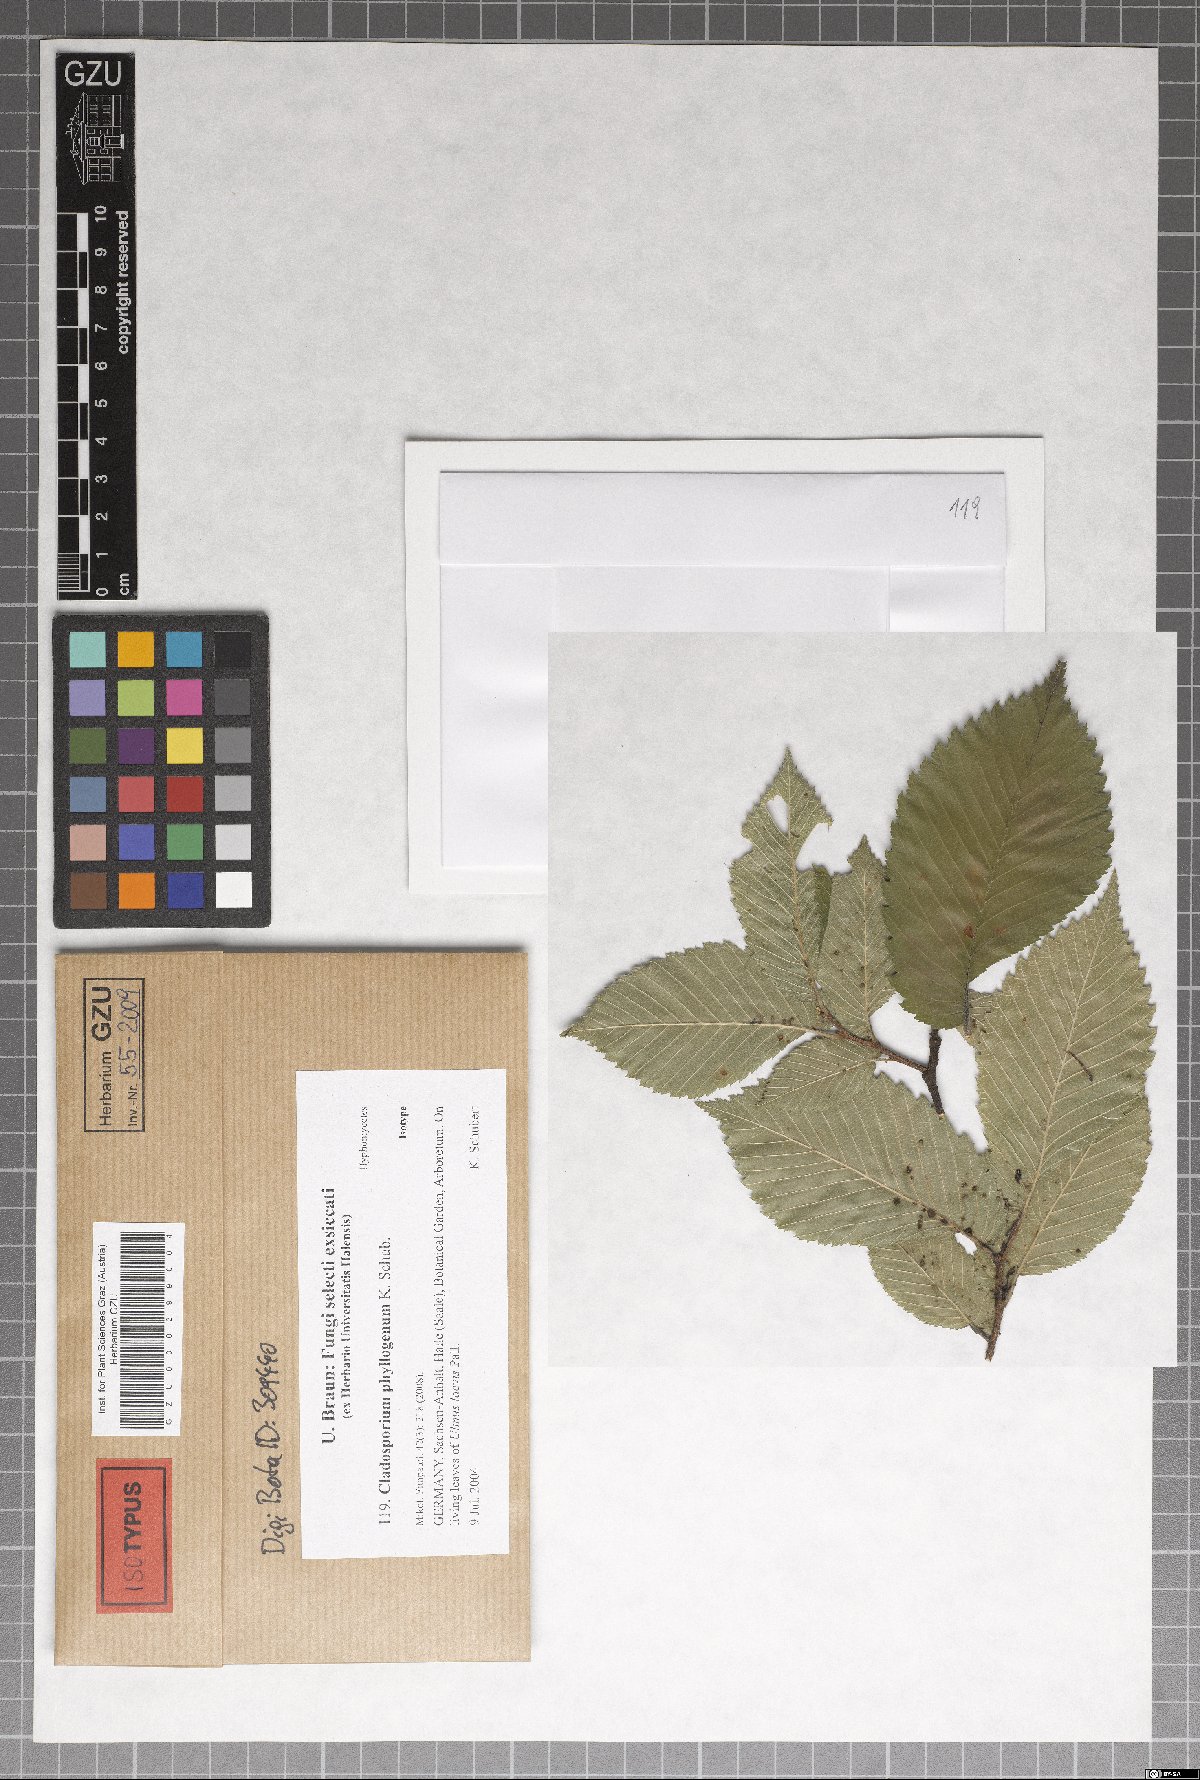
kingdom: Fungi
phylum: Ascomycota
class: Dothideomycetes
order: Capnodiales
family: Cladosporiaceae
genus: Cladosporium
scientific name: Cladosporium phyllogenum
